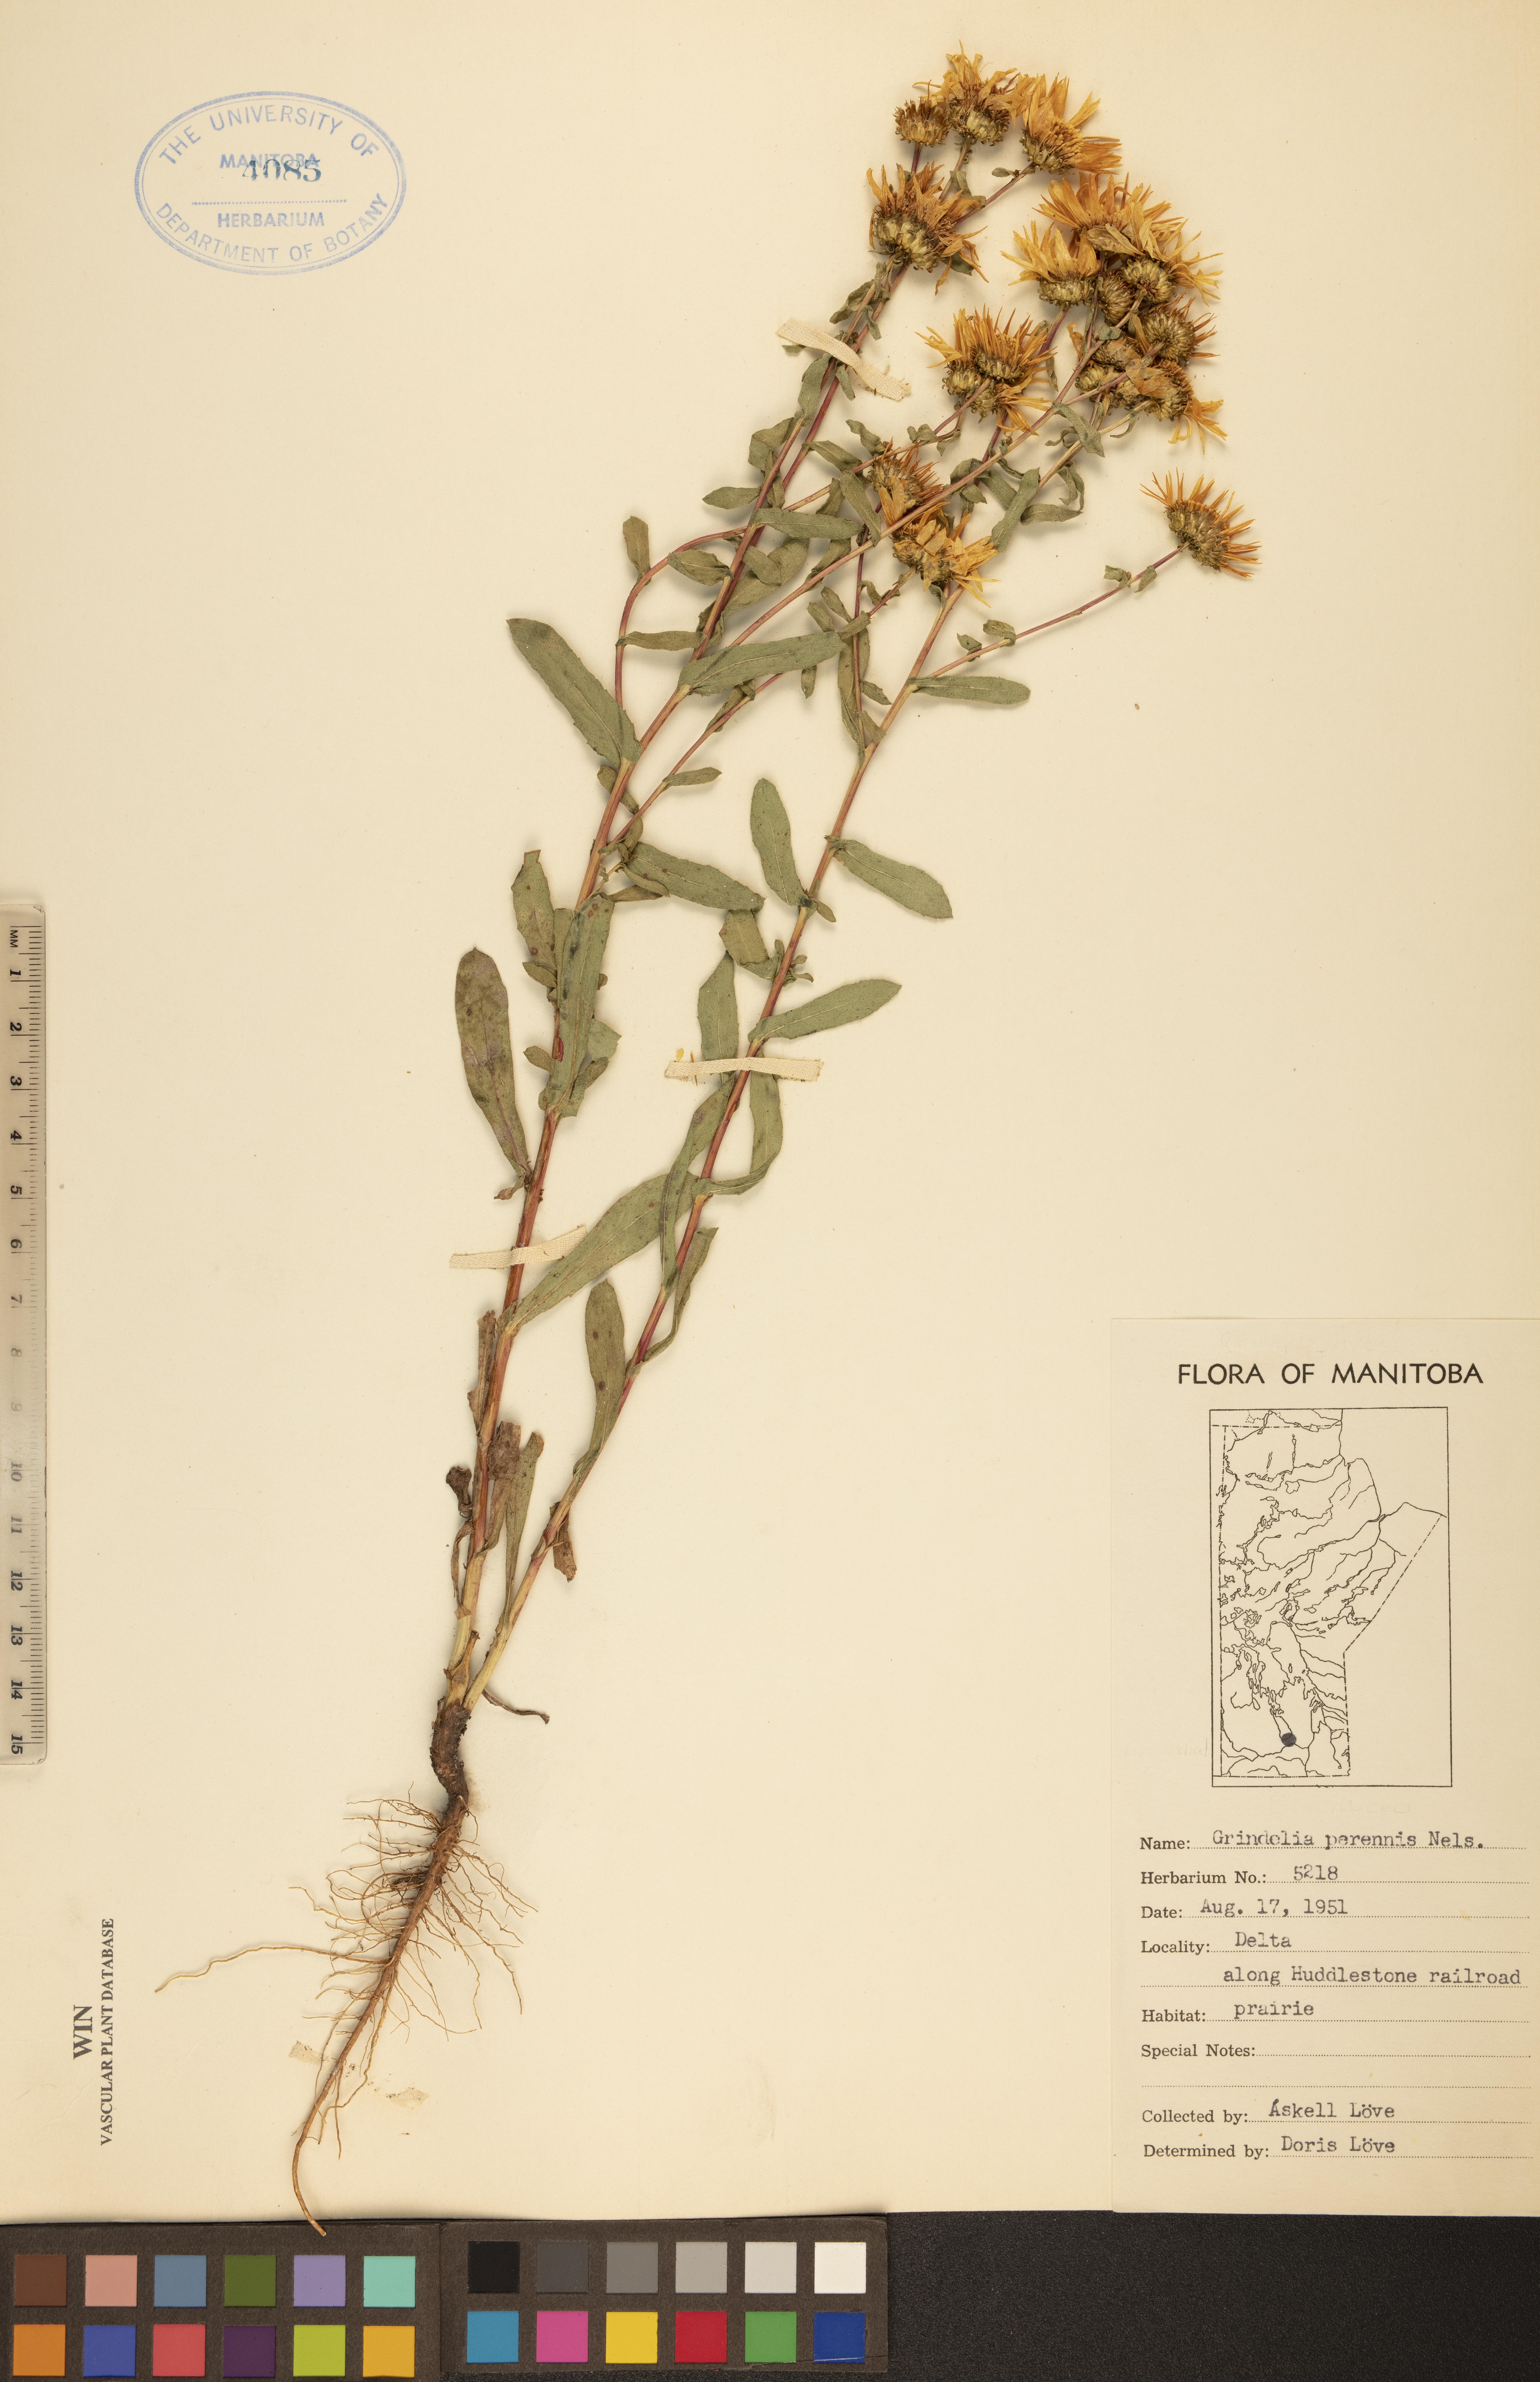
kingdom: Plantae
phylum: Tracheophyta
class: Magnoliopsida
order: Asterales
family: Asteraceae
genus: Grindelia
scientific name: Grindelia hirsutula
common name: Hairy gumweed
